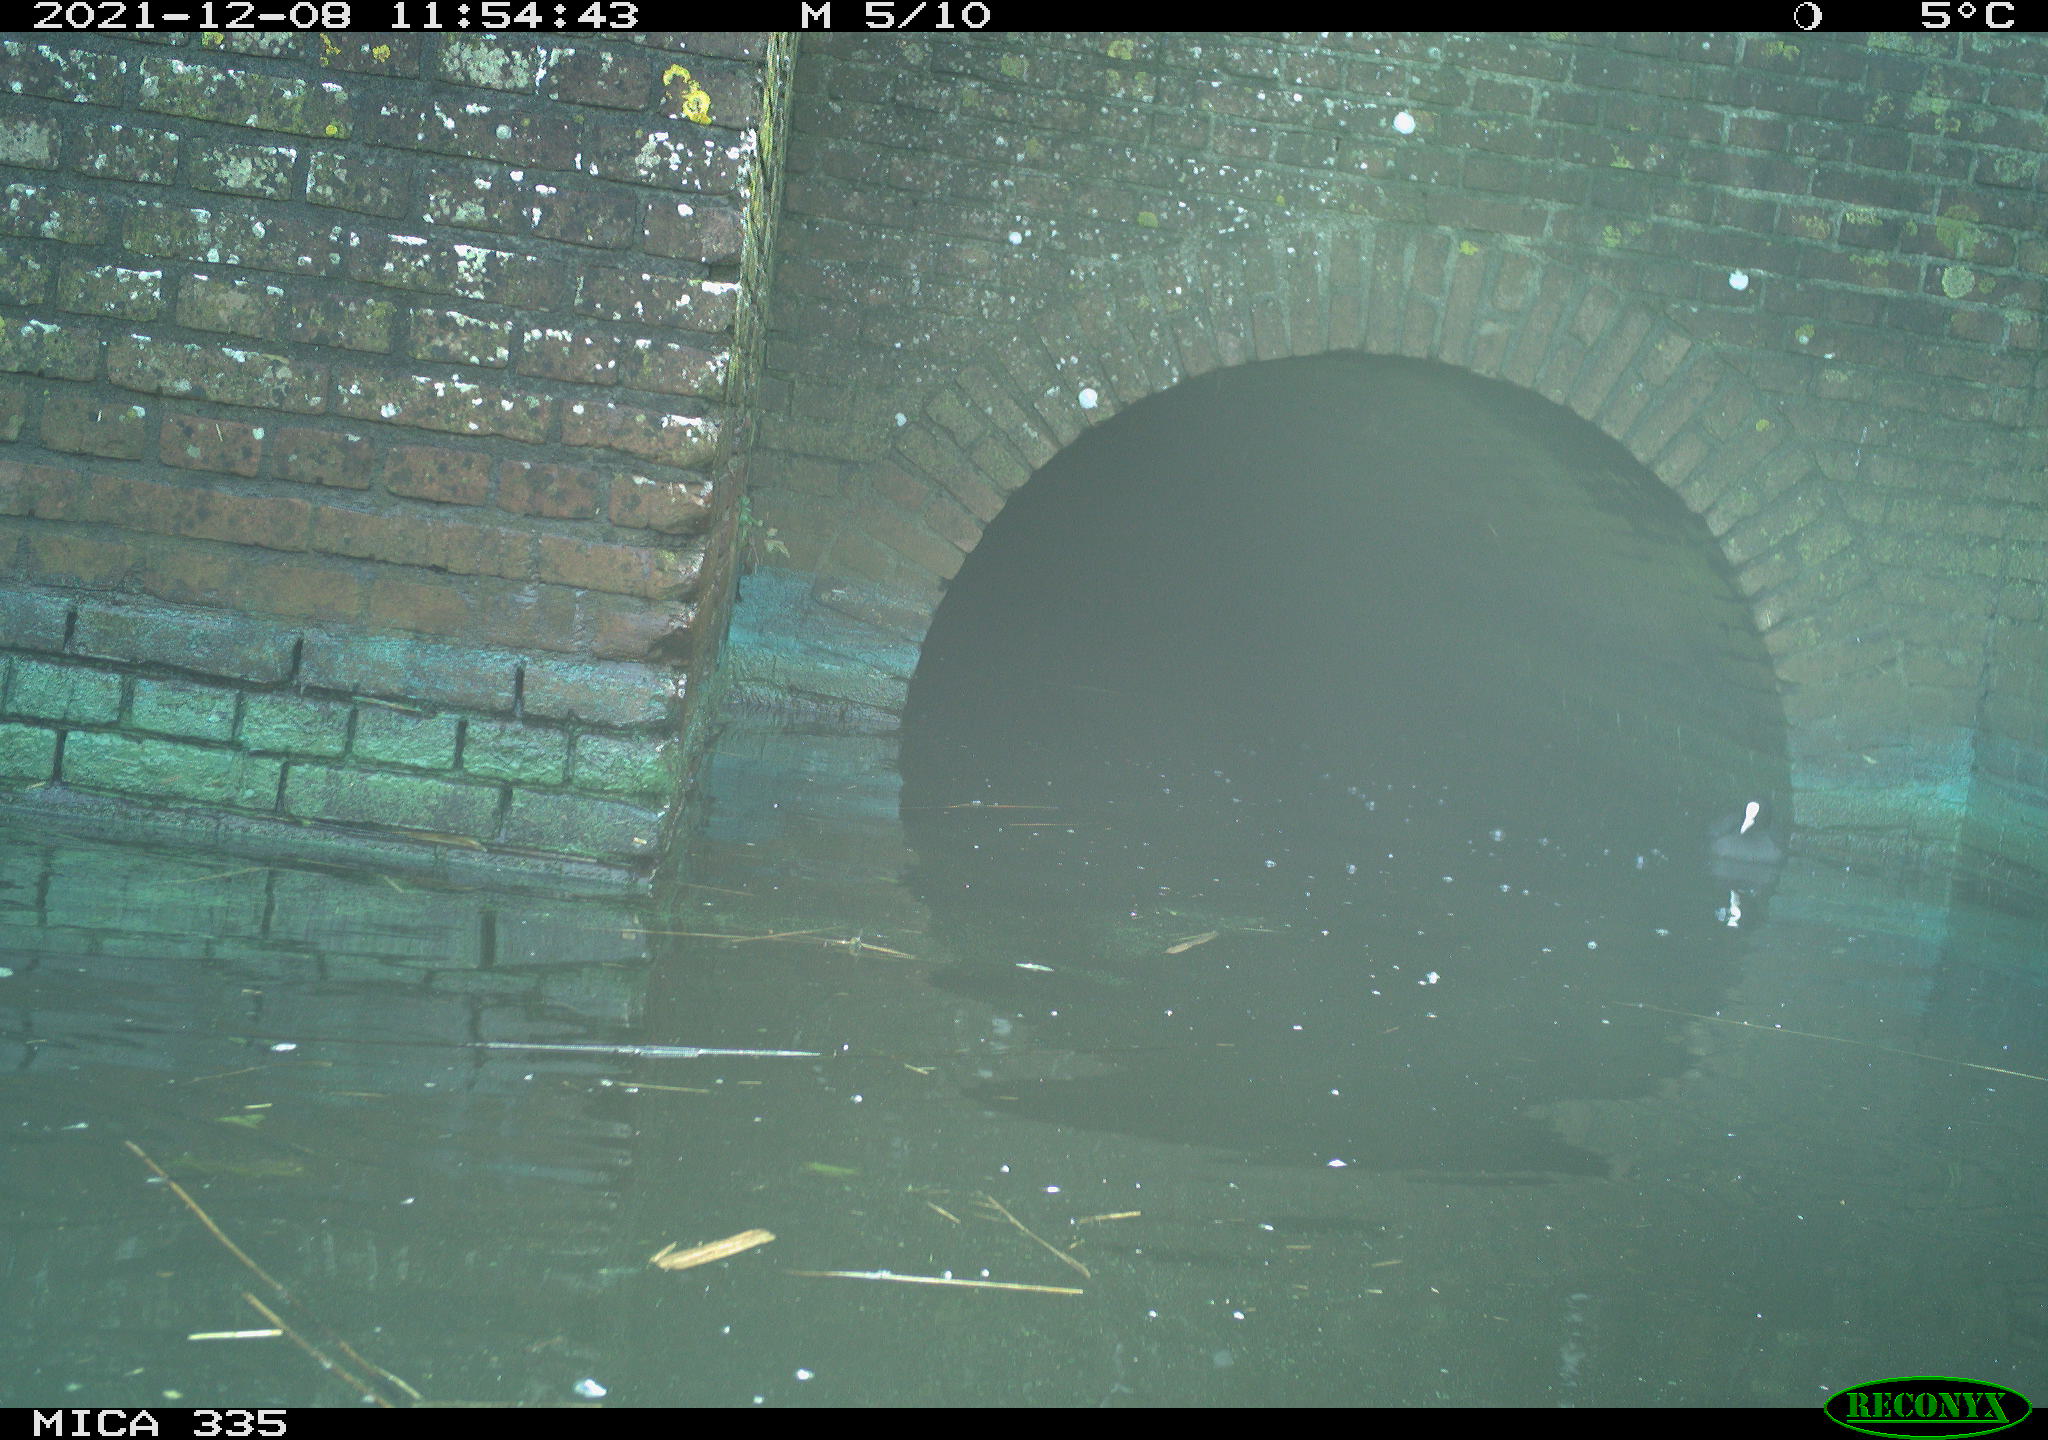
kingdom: Animalia
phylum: Chordata
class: Aves
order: Gruiformes
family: Rallidae
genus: Fulica
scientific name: Fulica atra
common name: Eurasian coot
